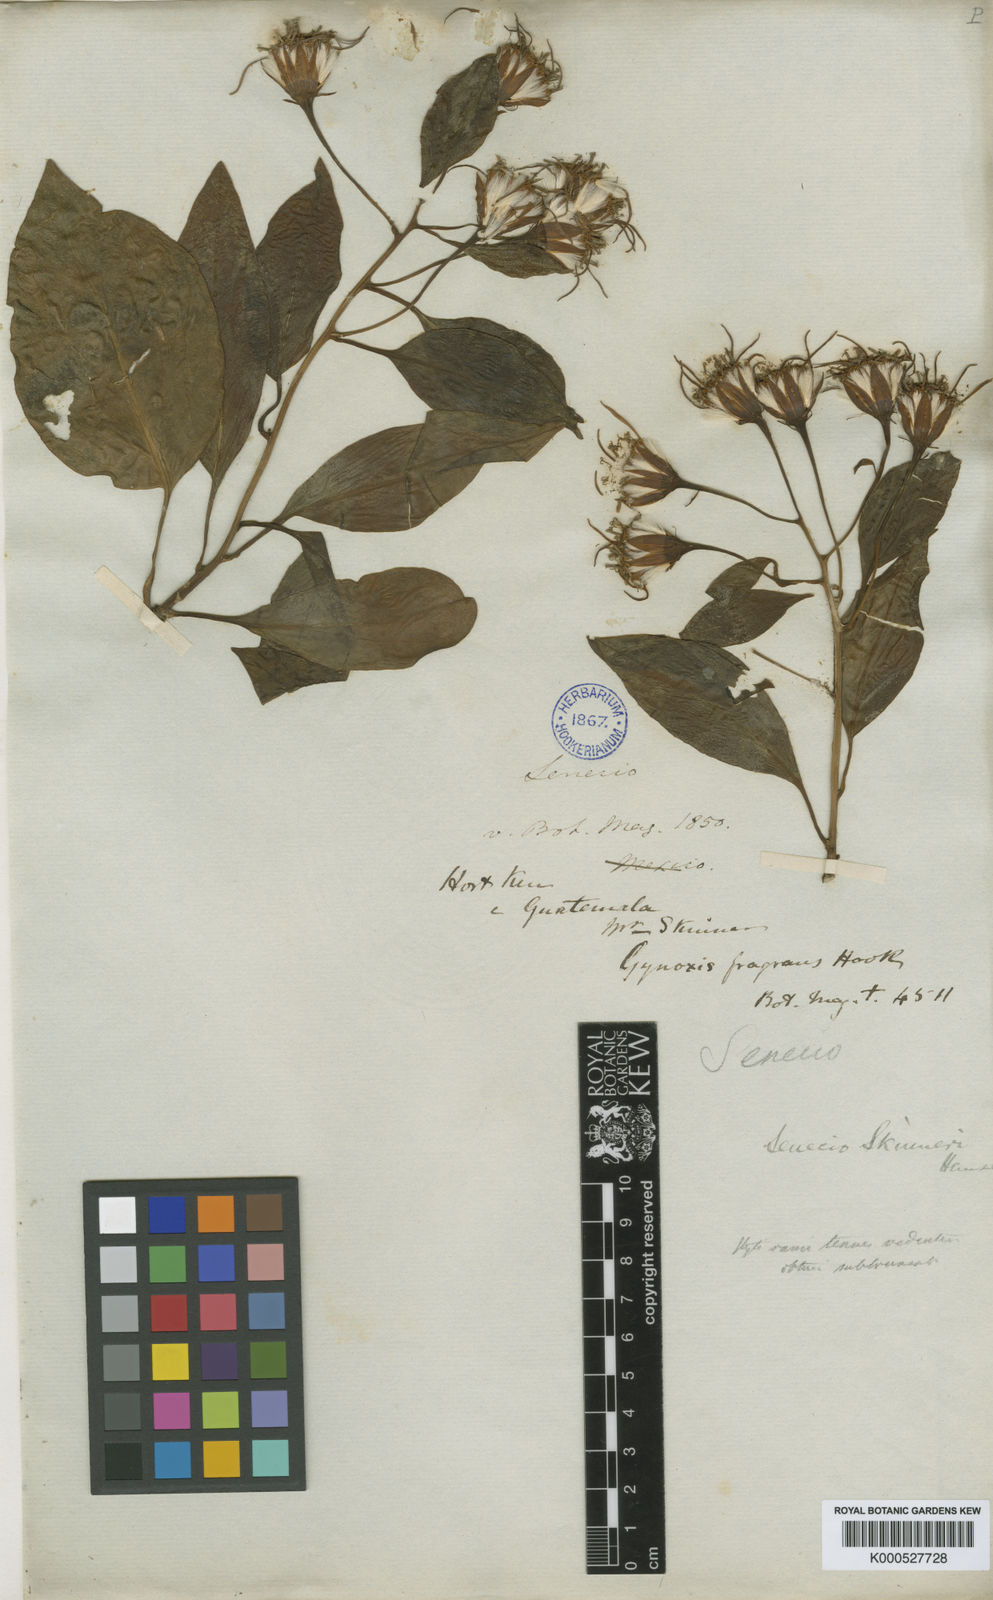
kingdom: Plantae
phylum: Tracheophyta
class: Magnoliopsida
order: Asterales
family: Asteraceae
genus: Pseudogynoxys
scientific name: Pseudogynoxys fragrans
